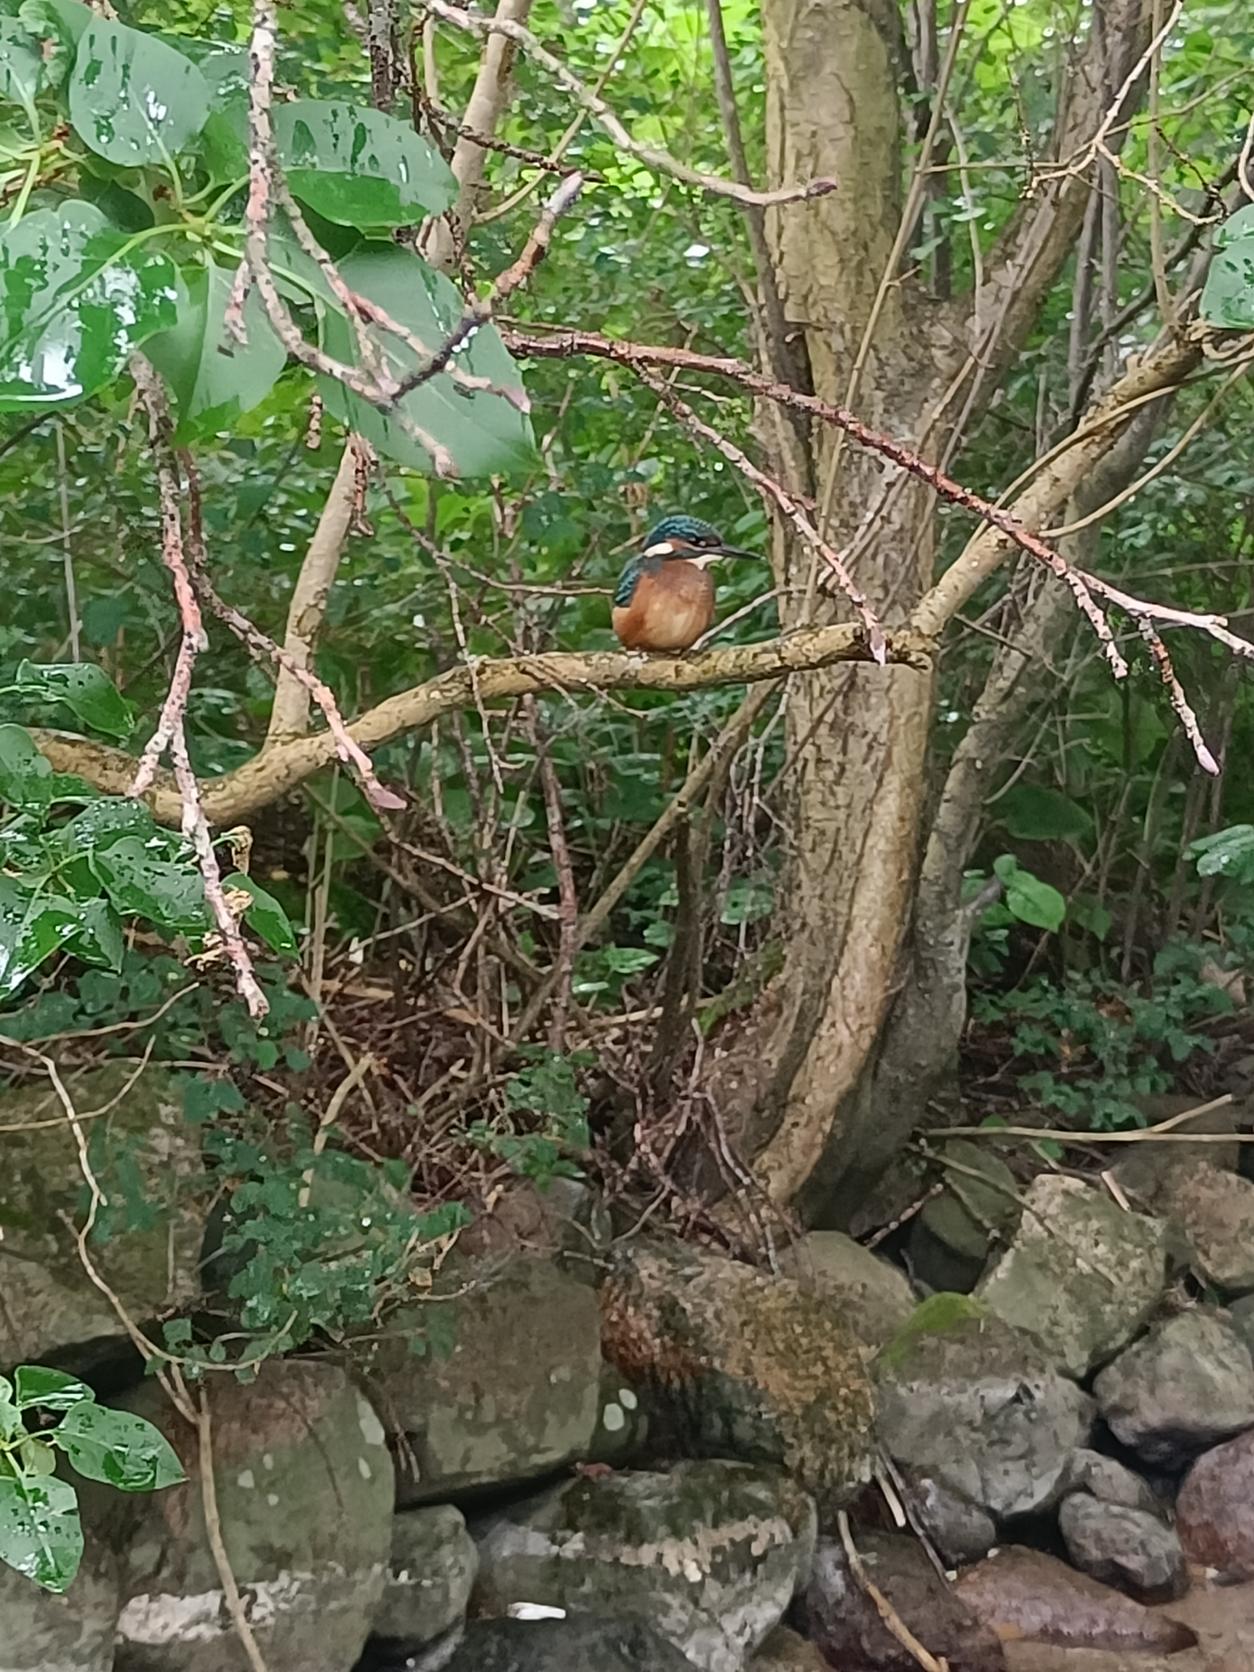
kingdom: Animalia
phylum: Chordata
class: Aves
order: Coraciiformes
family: Alcedinidae
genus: Alcedo
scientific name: Alcedo atthis
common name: Isfugl
